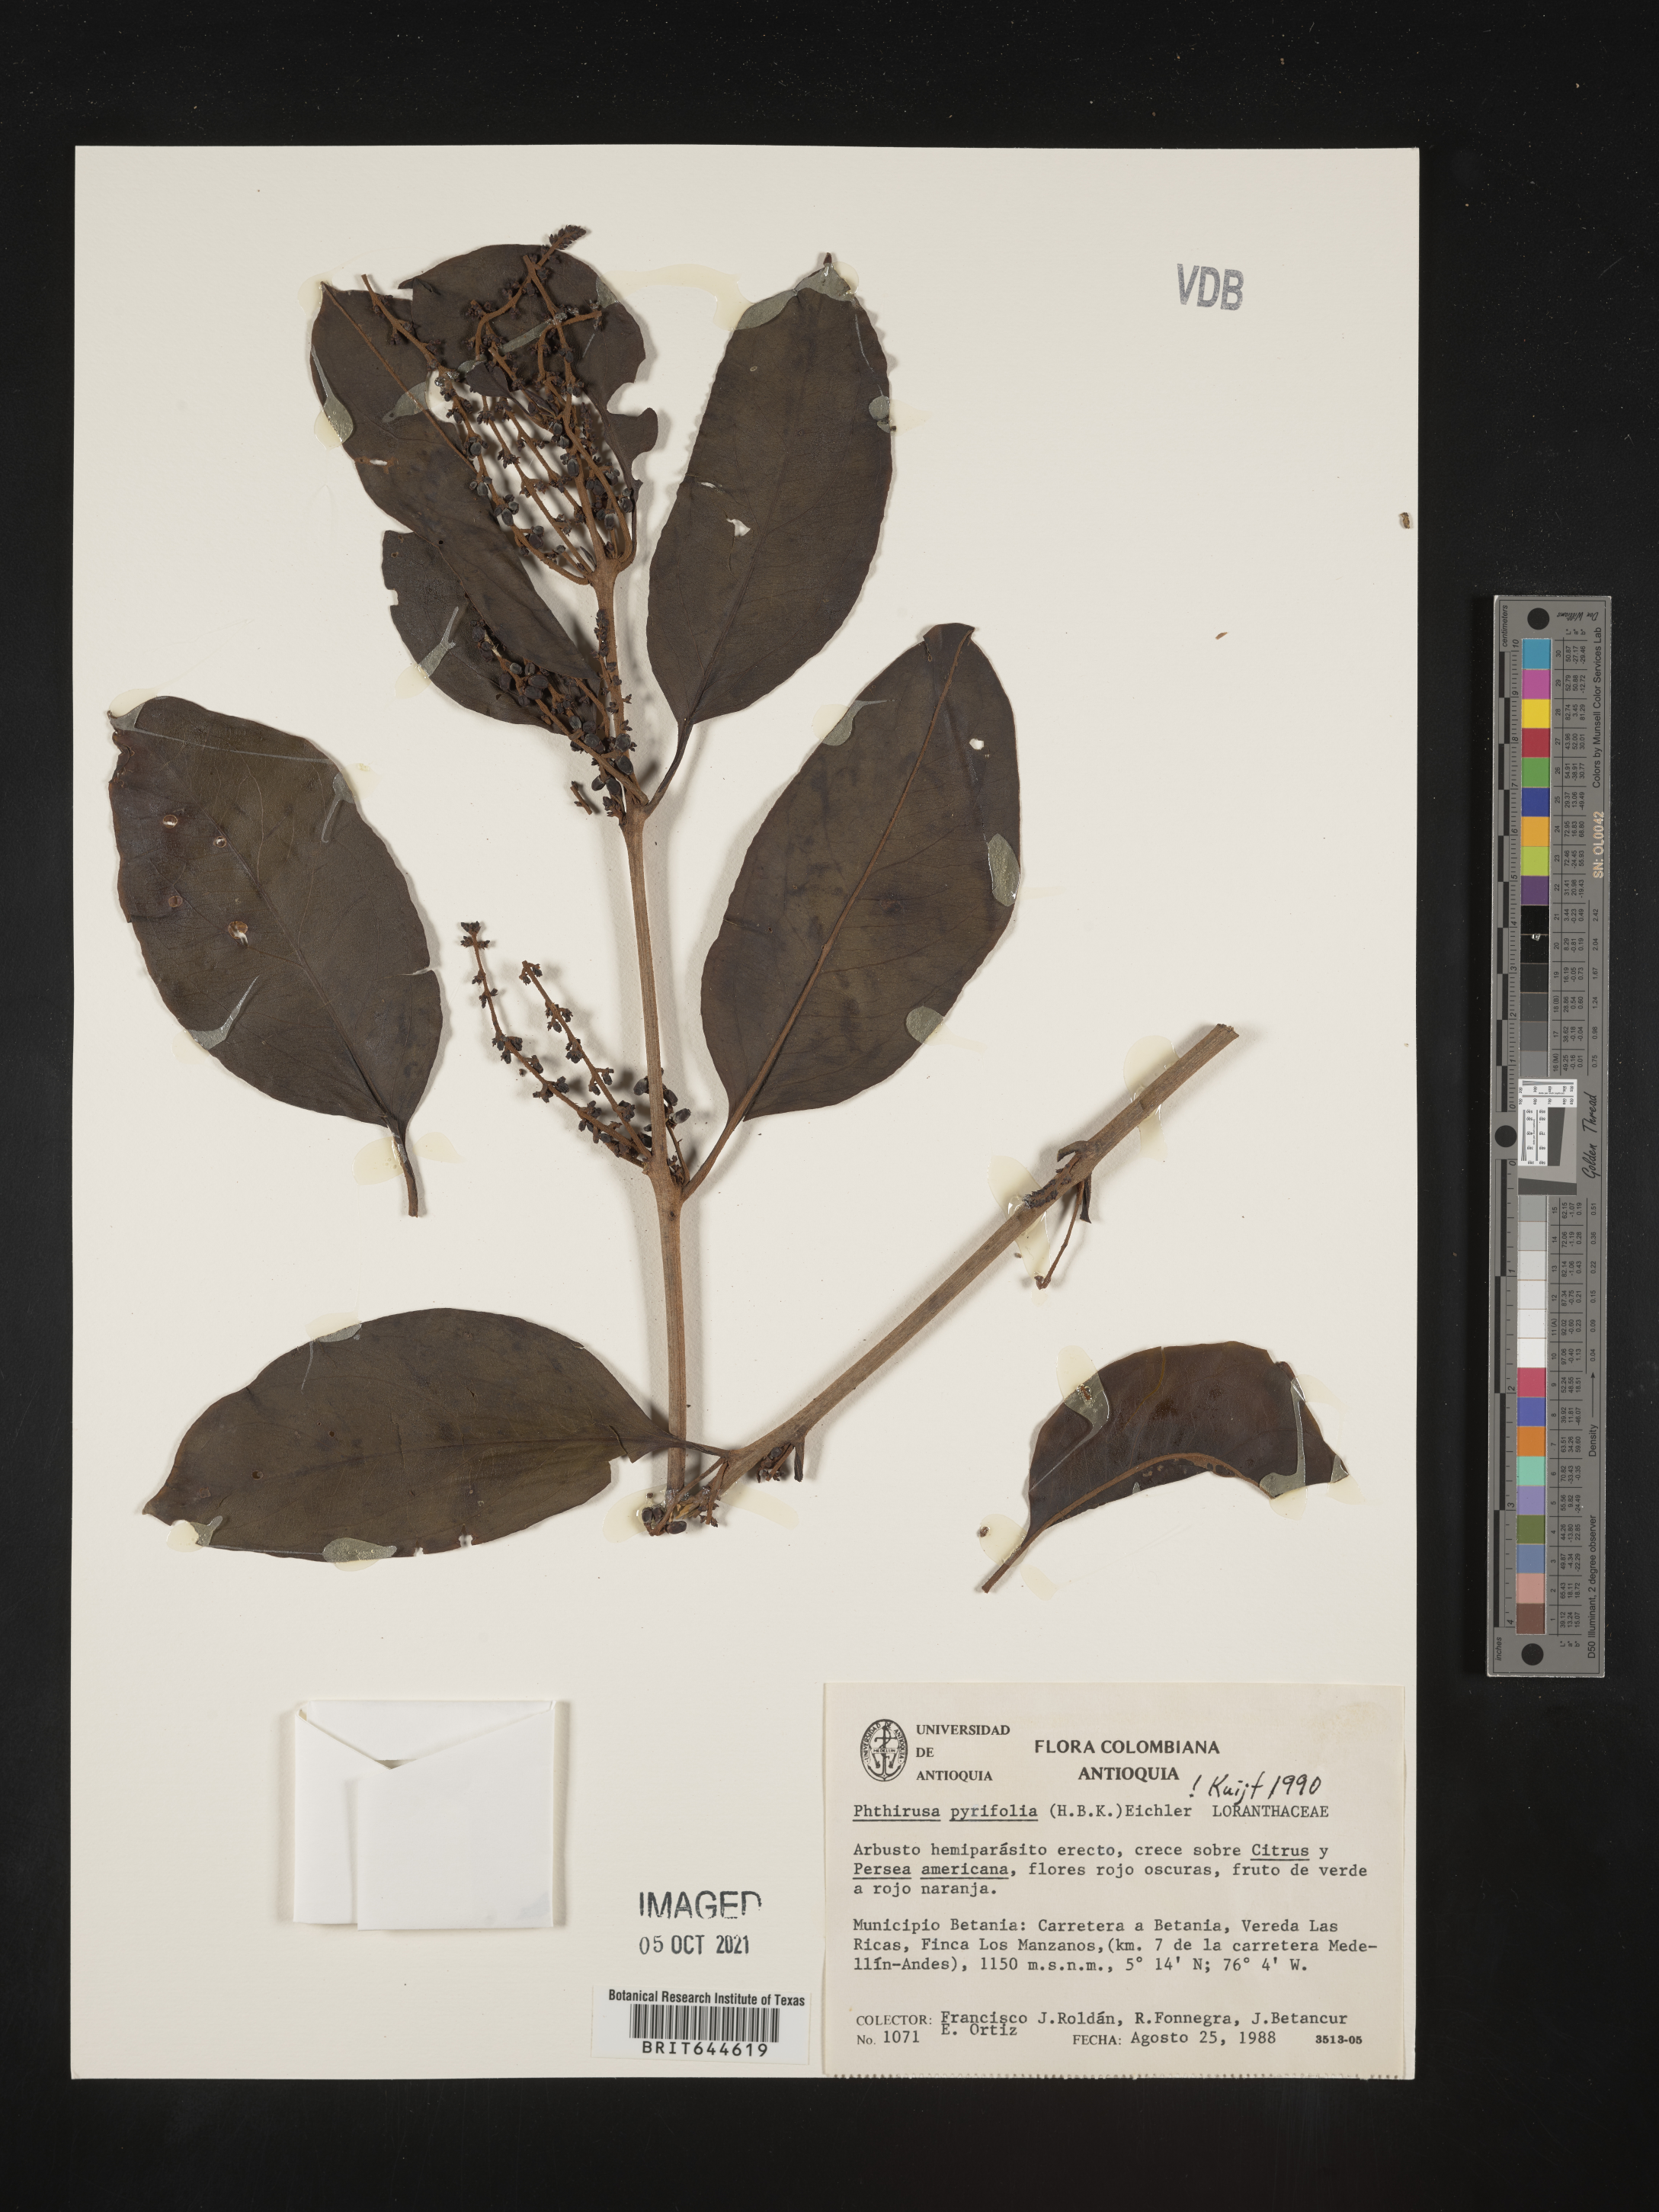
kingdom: Plantae
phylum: Tracheophyta
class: Magnoliopsida
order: Santalales
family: Loranthaceae
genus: Phthirusa
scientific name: Phthirusa
